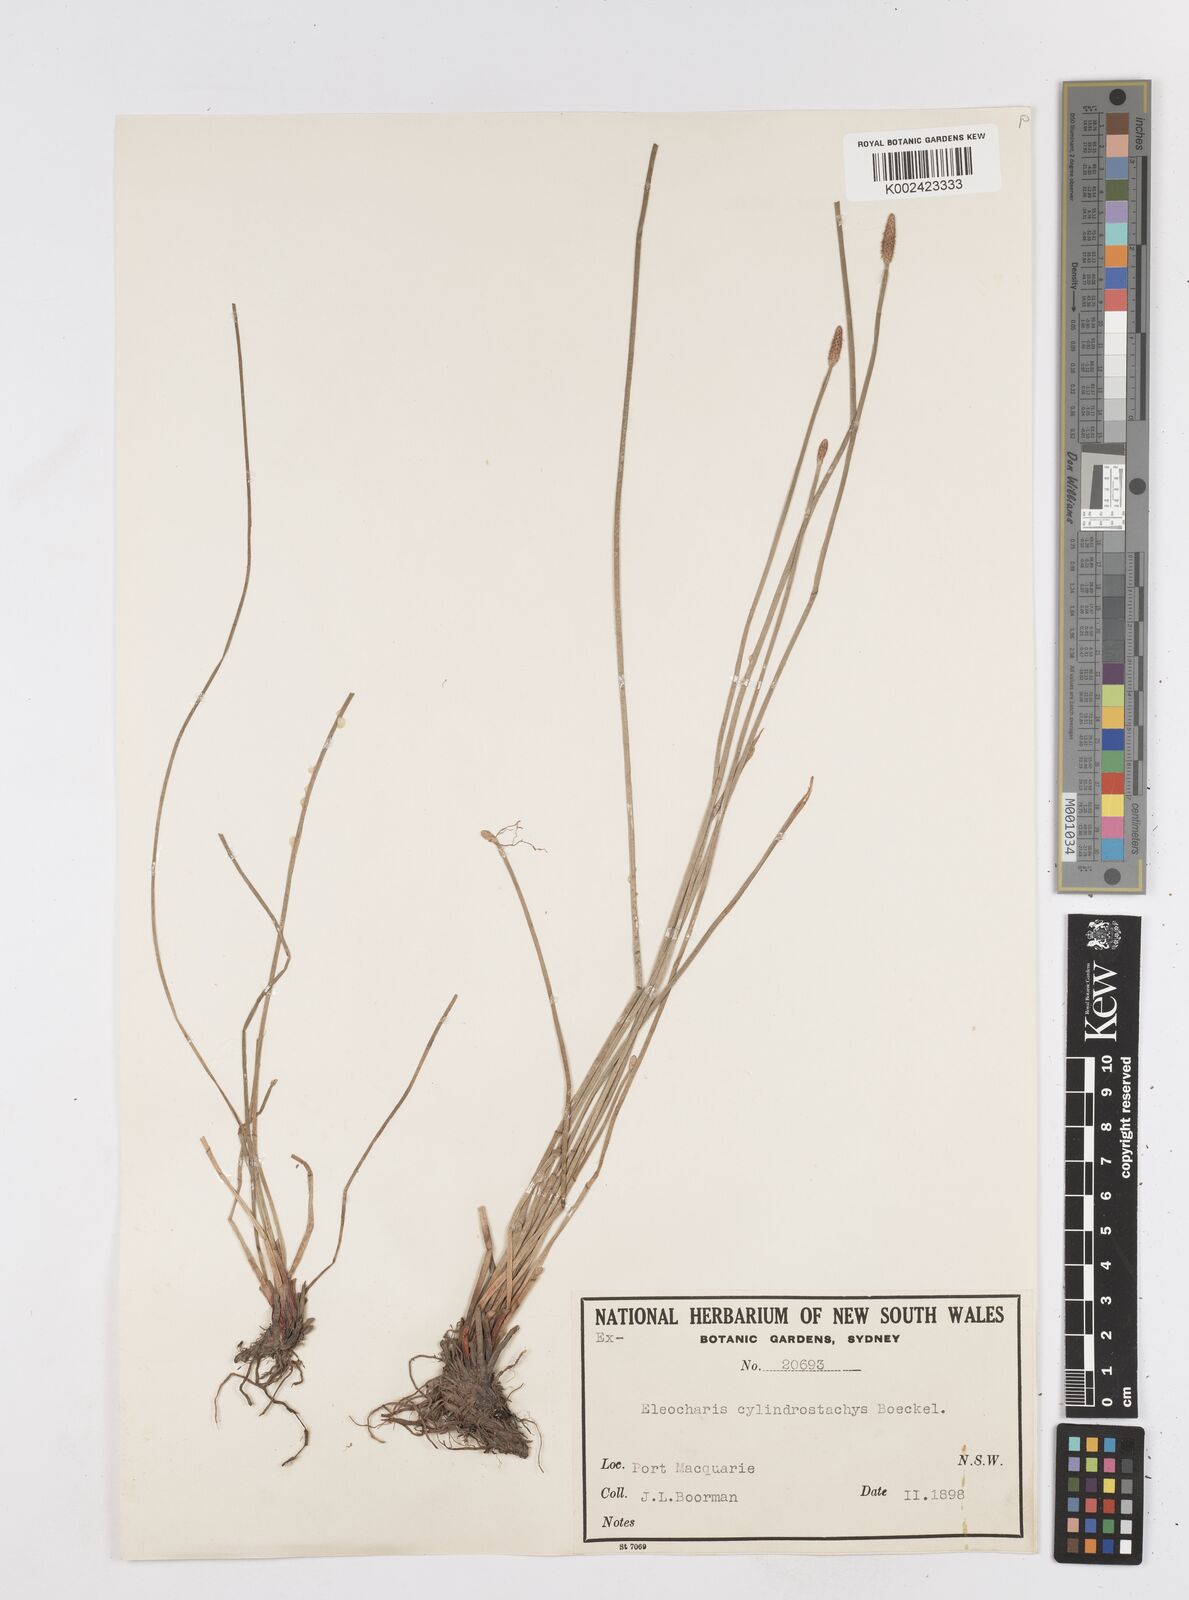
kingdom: Plantae
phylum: Tracheophyta
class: Liliopsida
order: Poales
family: Cyperaceae
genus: Eleocharis
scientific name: Eleocharis cylindrostachys
